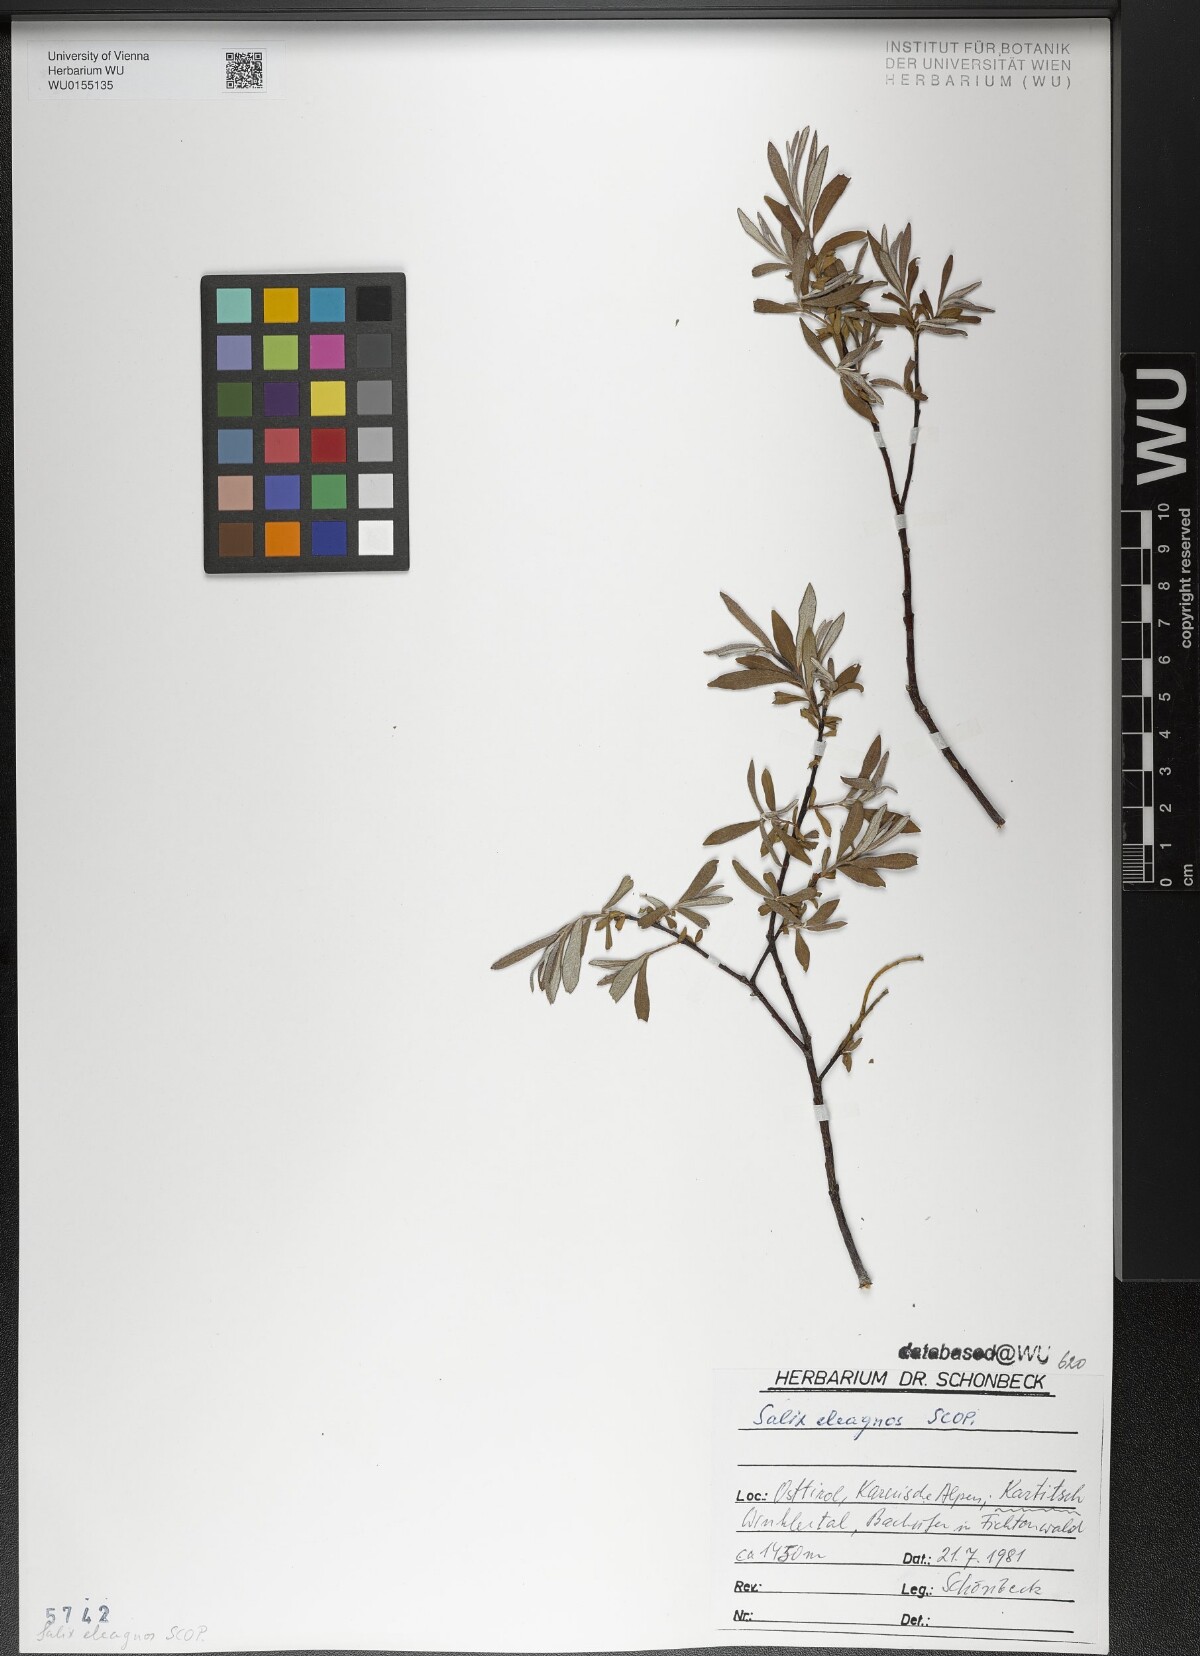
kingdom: Plantae
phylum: Tracheophyta
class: Magnoliopsida
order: Malpighiales
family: Salicaceae
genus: Salix
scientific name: Salix eleagnos
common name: Elaeagnus willow
